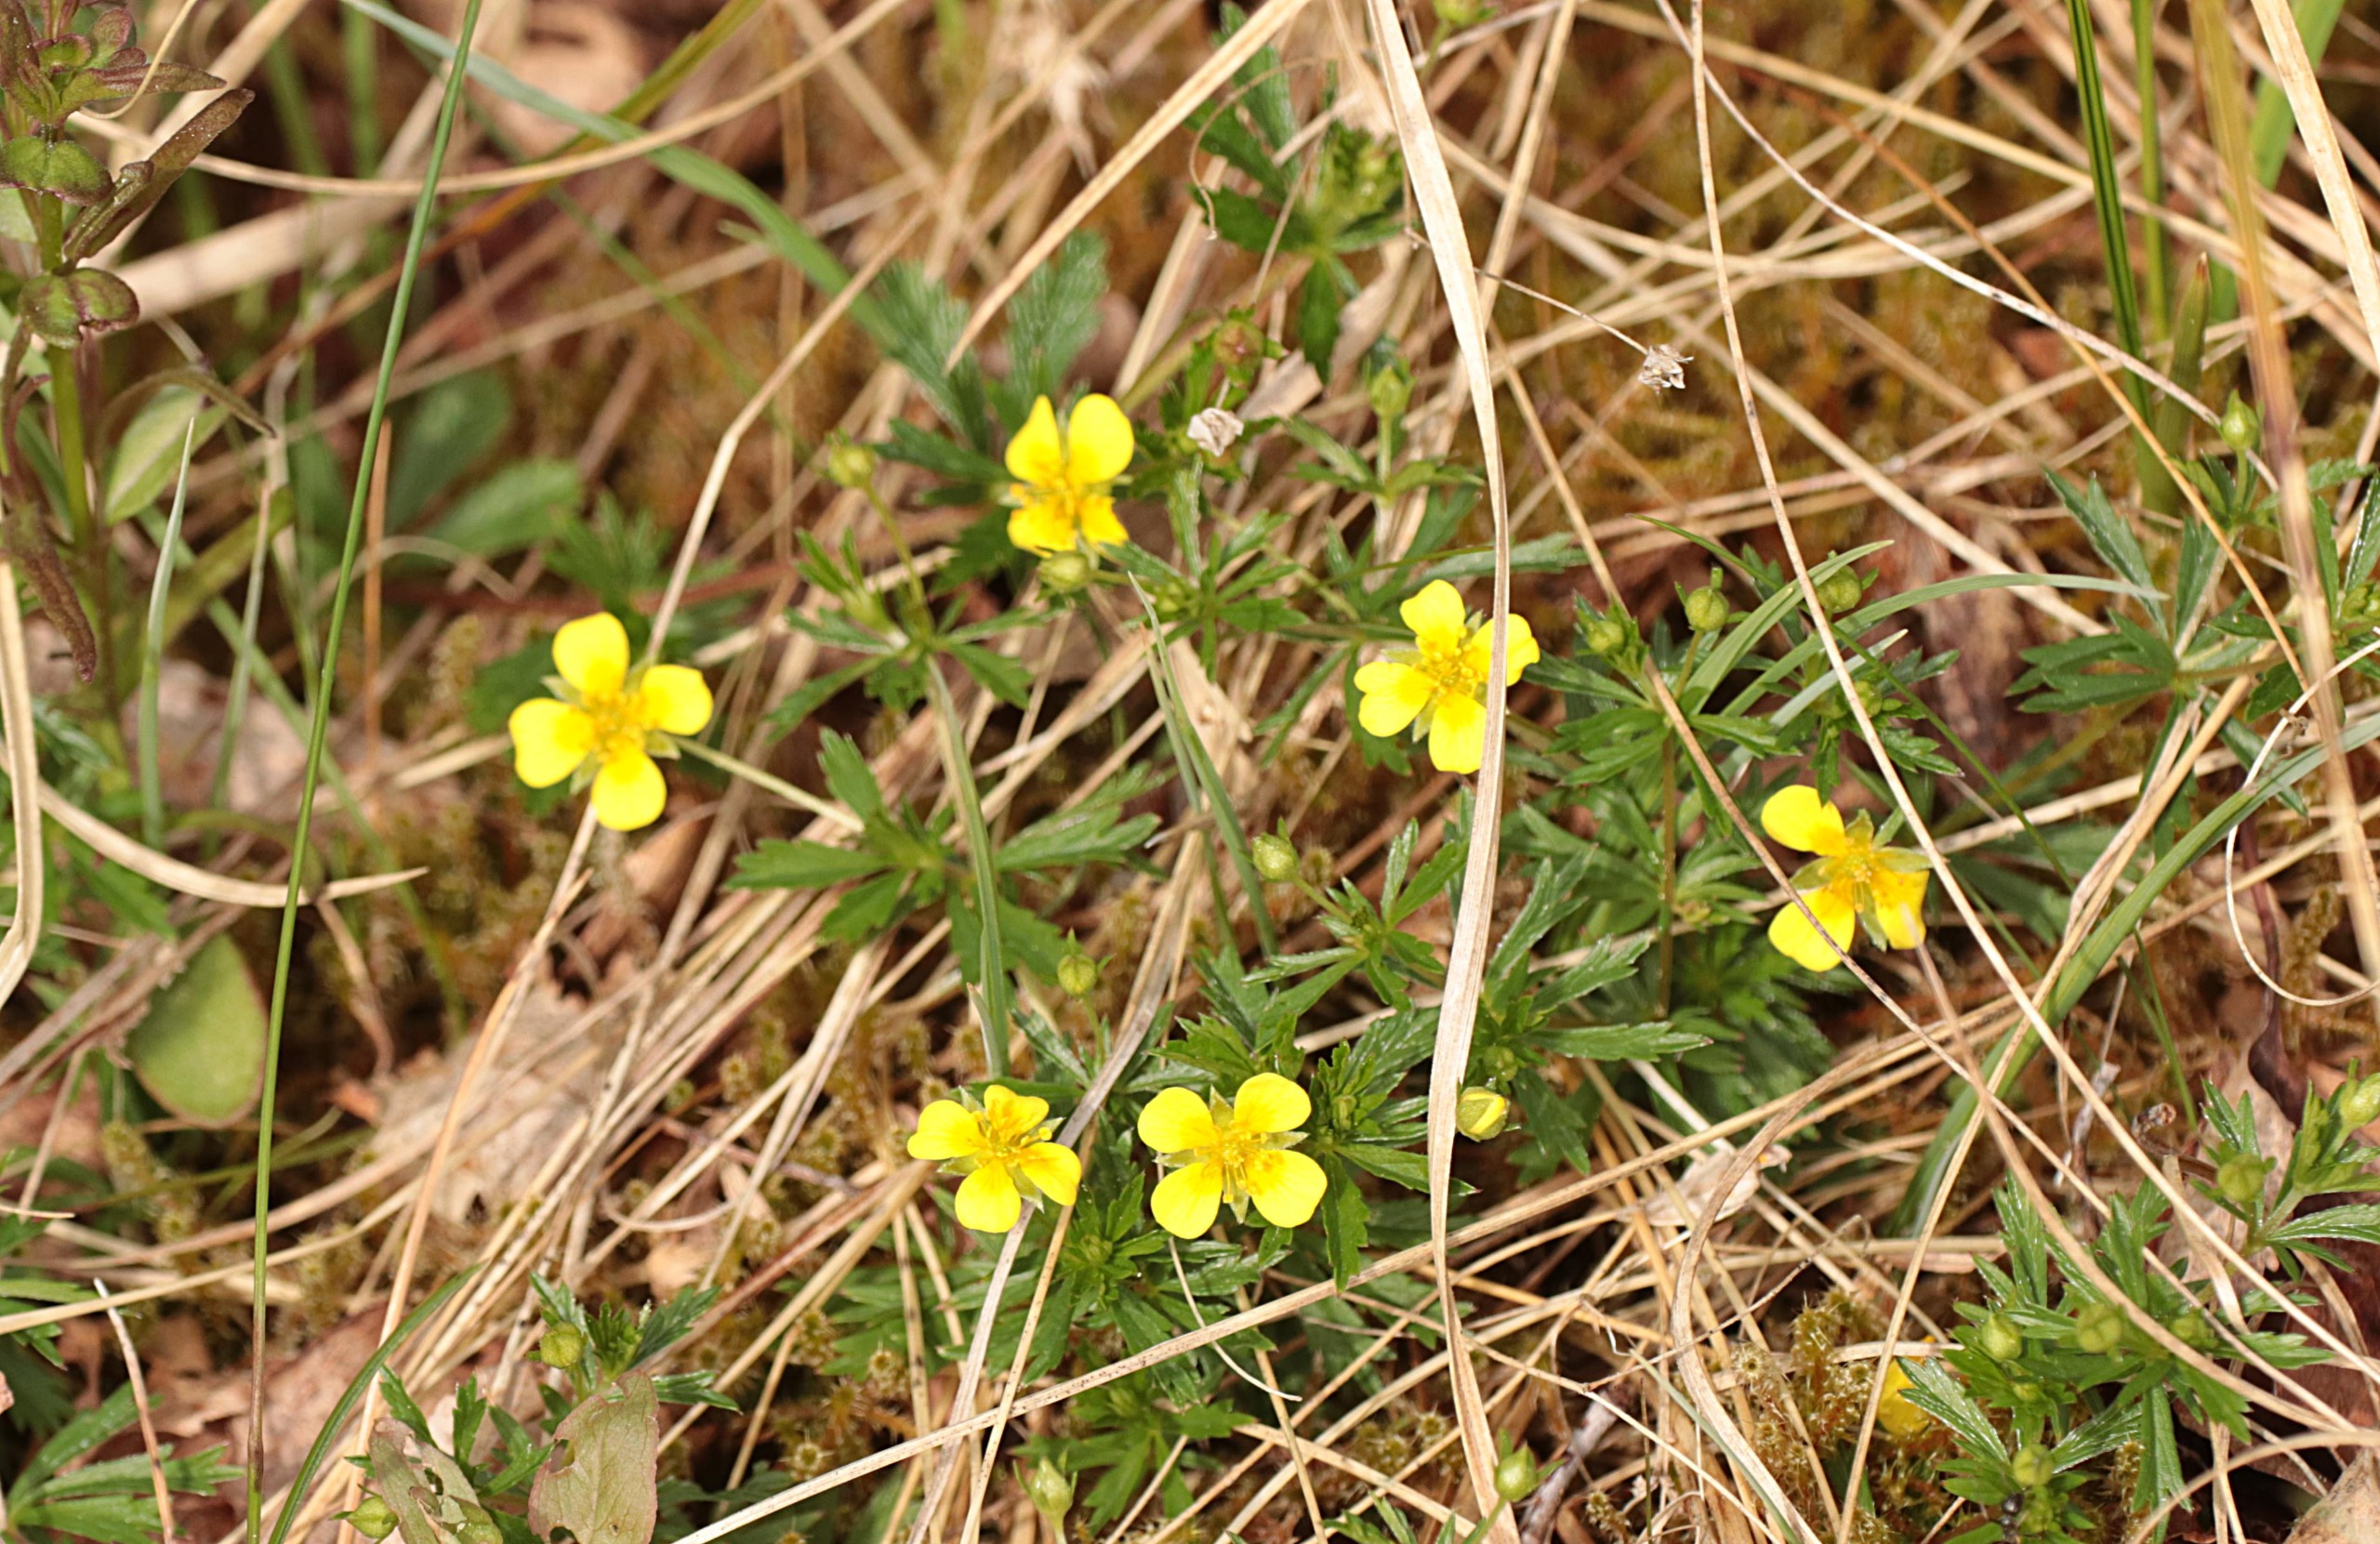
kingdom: Plantae
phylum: Tracheophyta
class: Magnoliopsida
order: Rosales
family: Rosaceae
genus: Potentilla
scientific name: Potentilla erecta
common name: Tormentil
